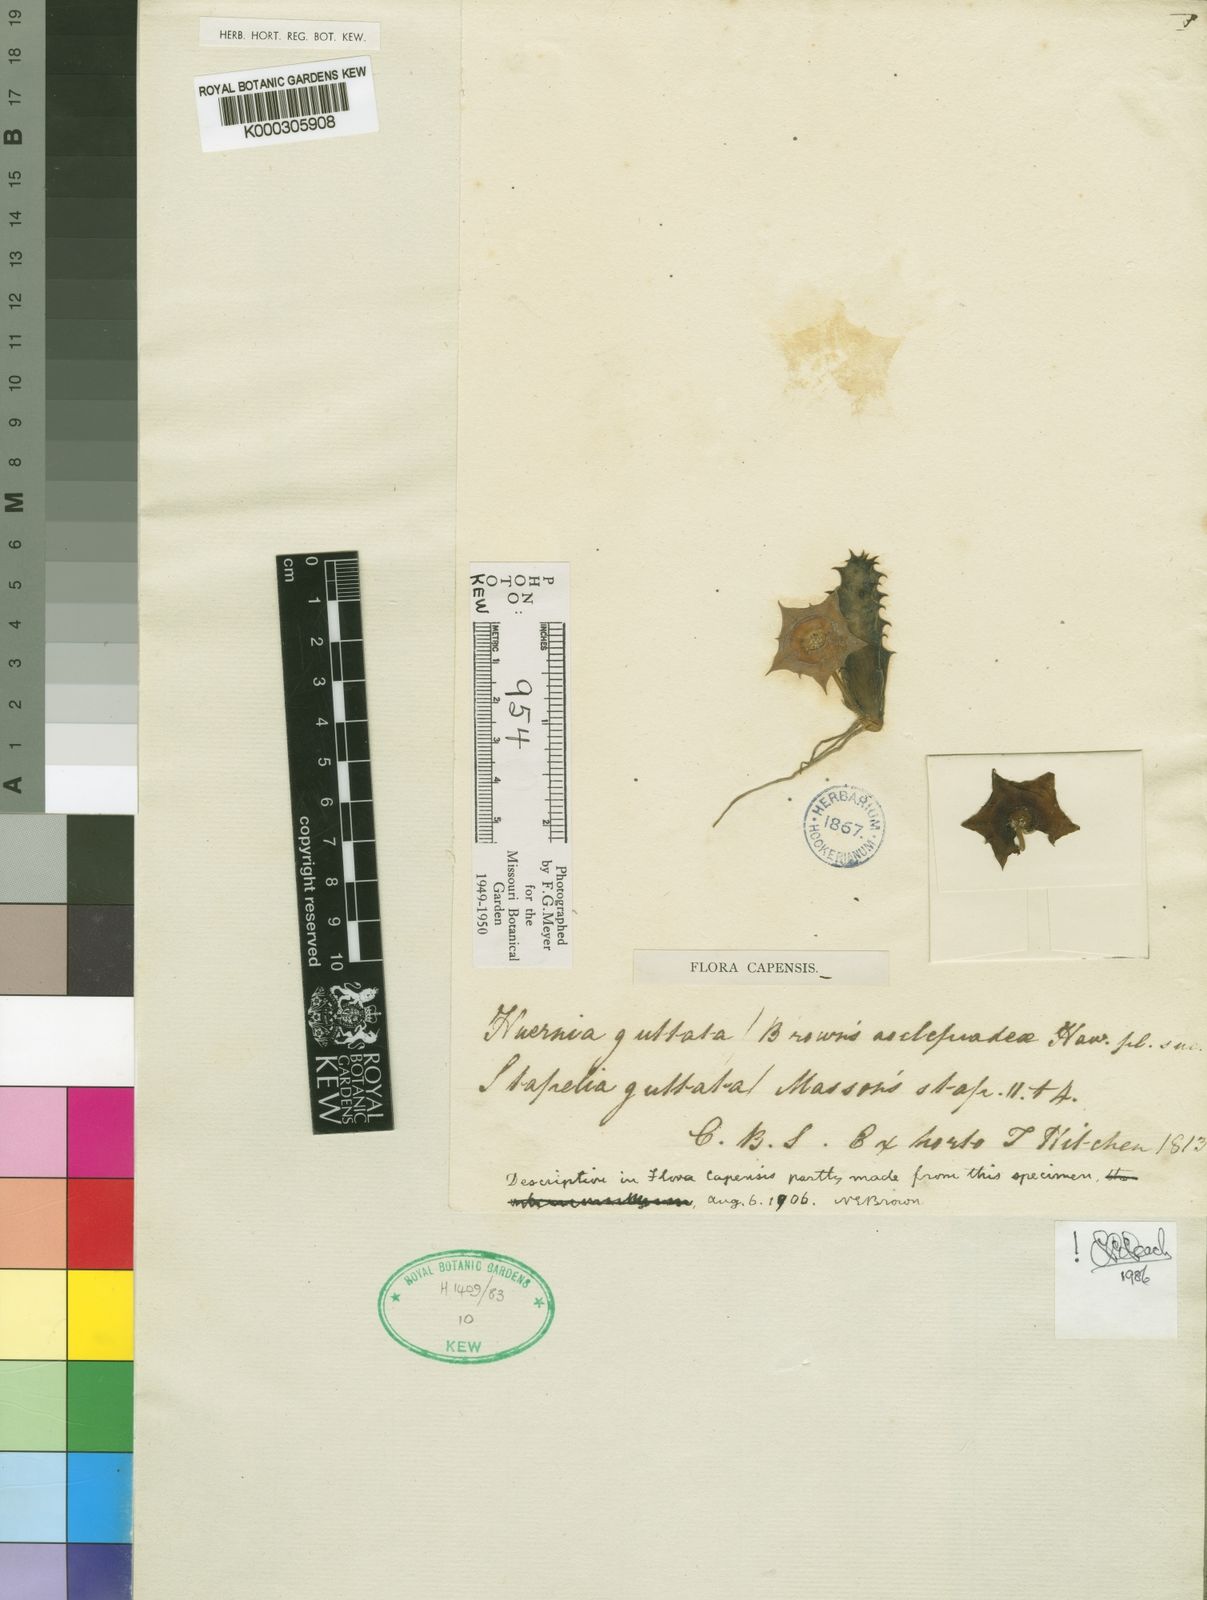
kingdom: Plantae
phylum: Tracheophyta
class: Magnoliopsida
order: Gentianales
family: Apocynaceae
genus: Ceropegia
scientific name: Ceropegia guttata
